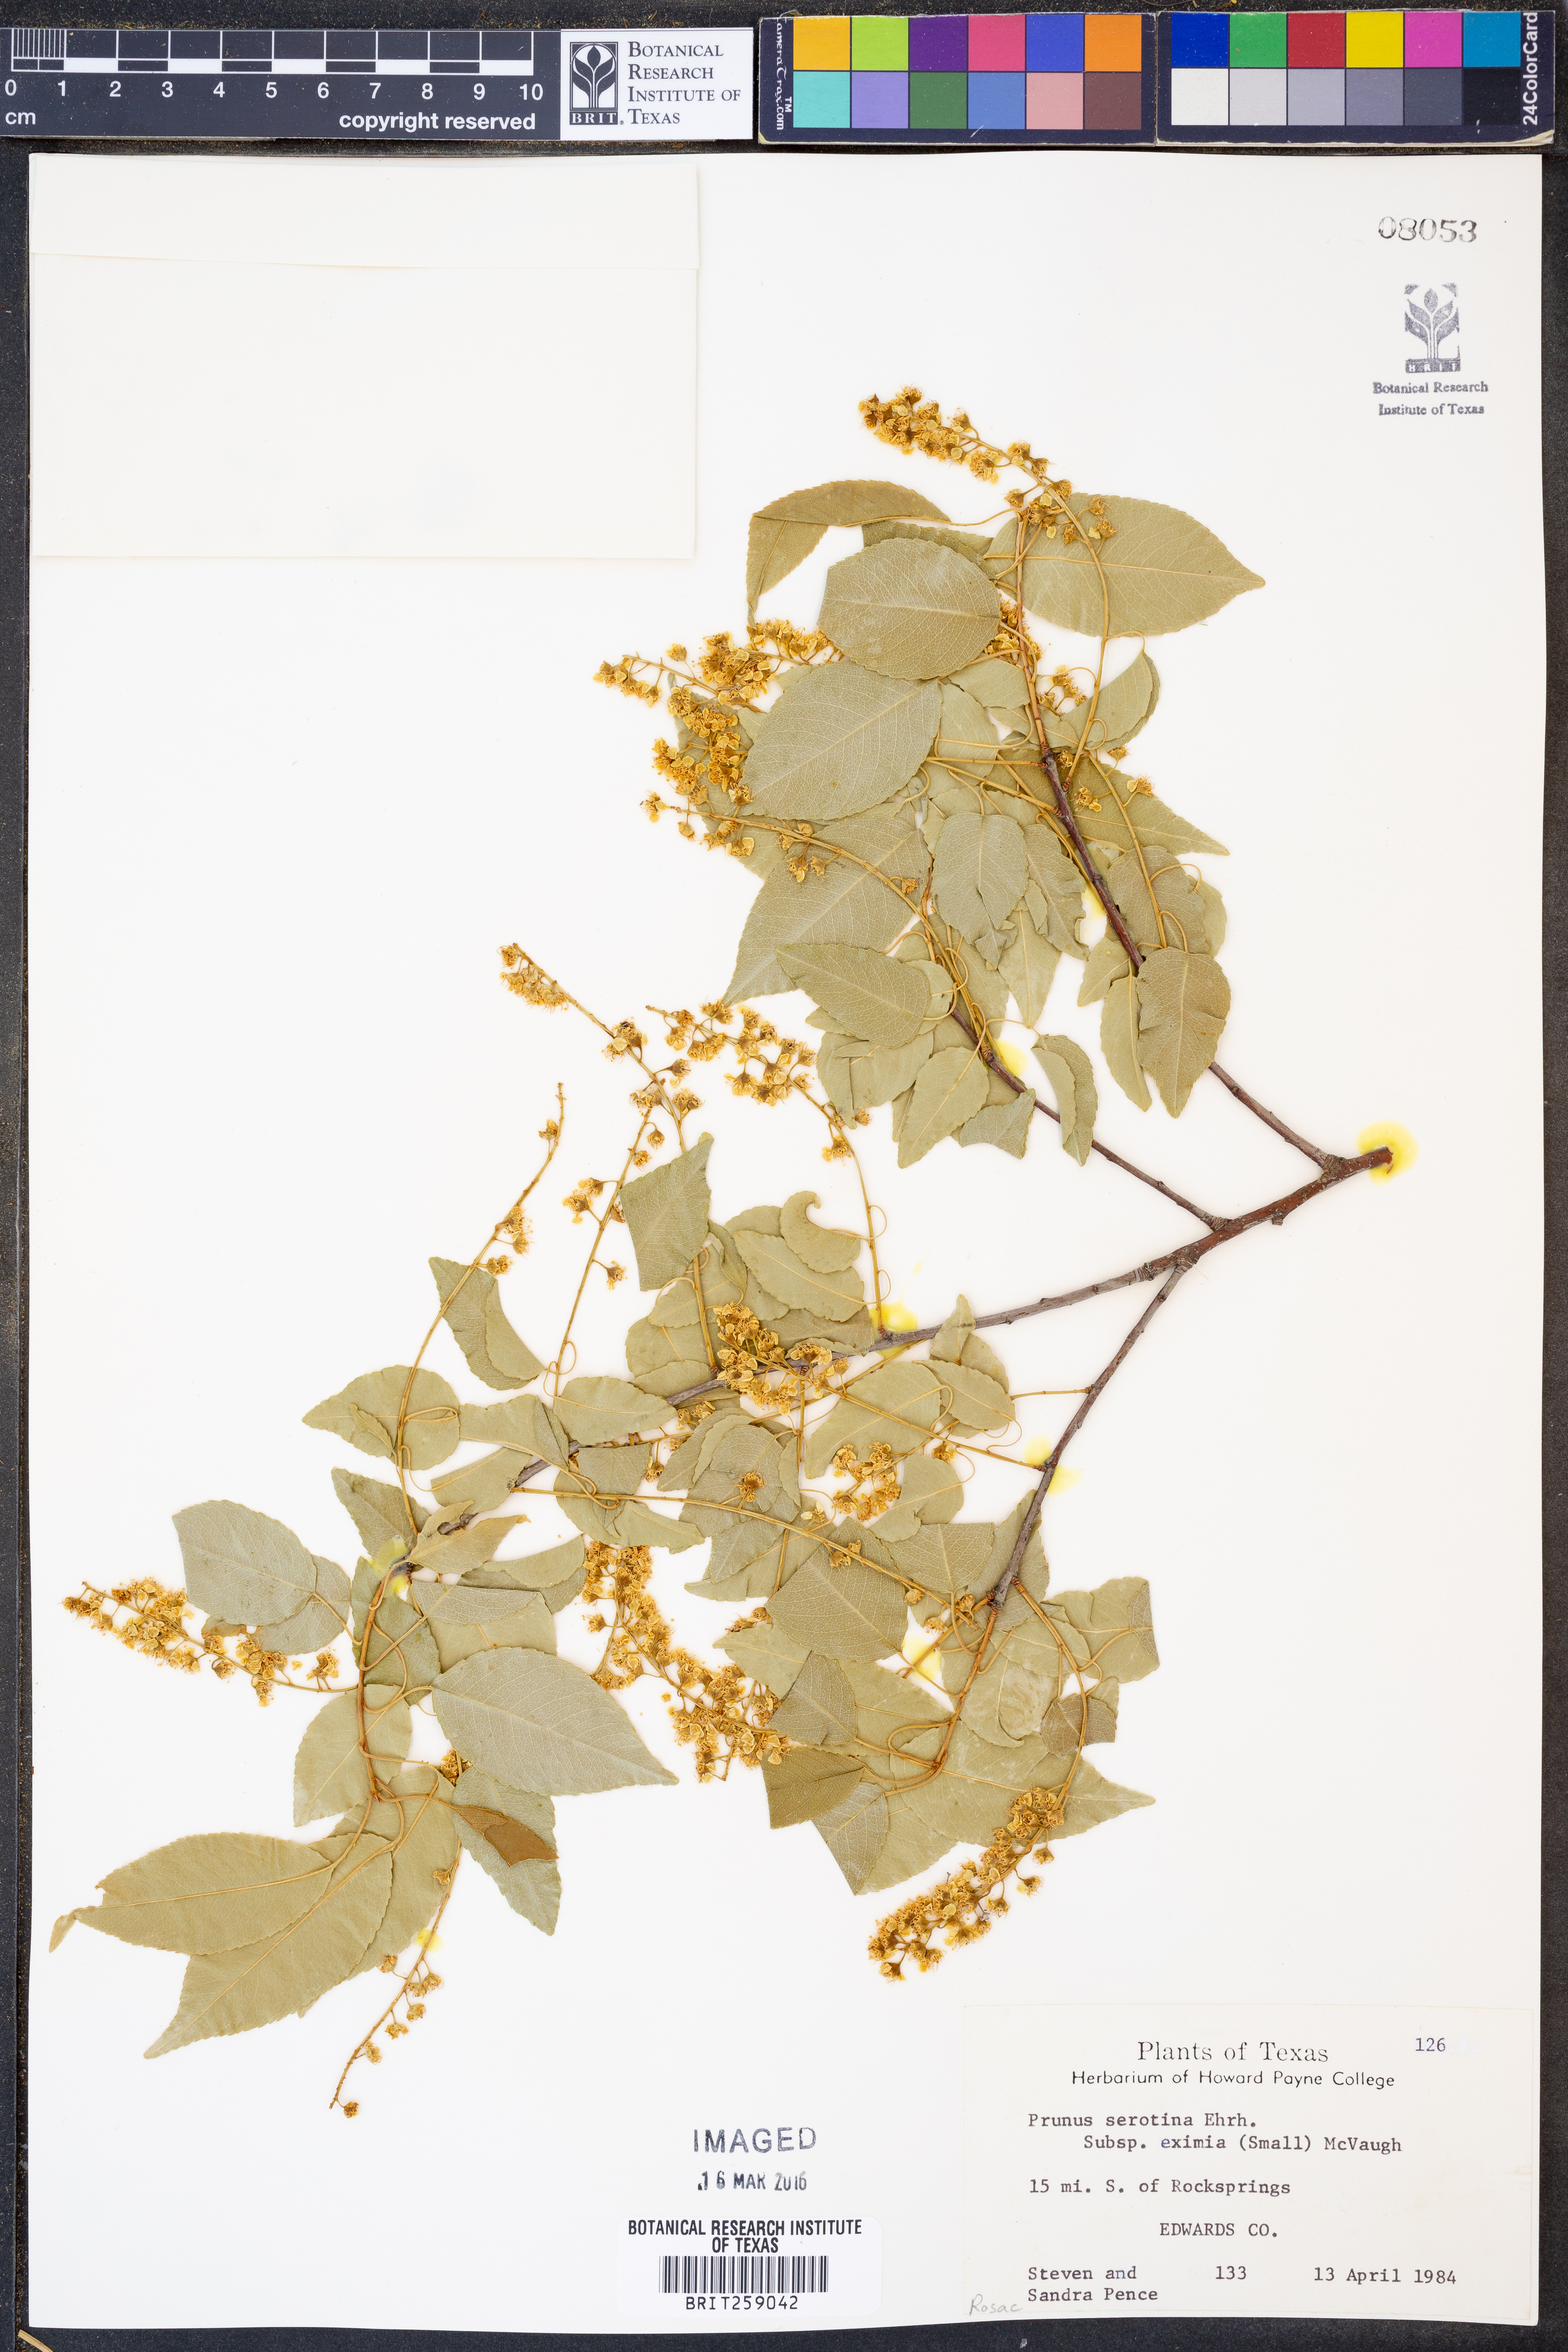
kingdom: Plantae
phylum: Tracheophyta
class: Magnoliopsida
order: Rosales
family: Rosaceae
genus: Prunus
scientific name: Prunus serotina
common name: Black cherry
